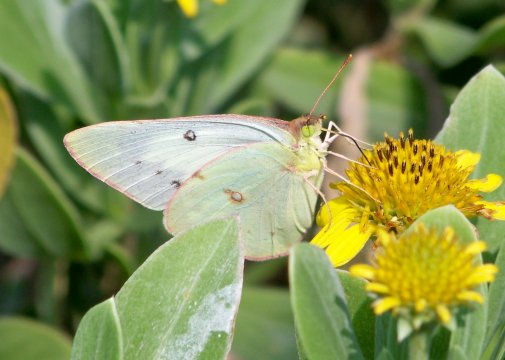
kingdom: Animalia
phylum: Arthropoda
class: Insecta
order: Lepidoptera
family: Pieridae
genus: Colias
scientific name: Colias philodice
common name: Clouded Sulphur
